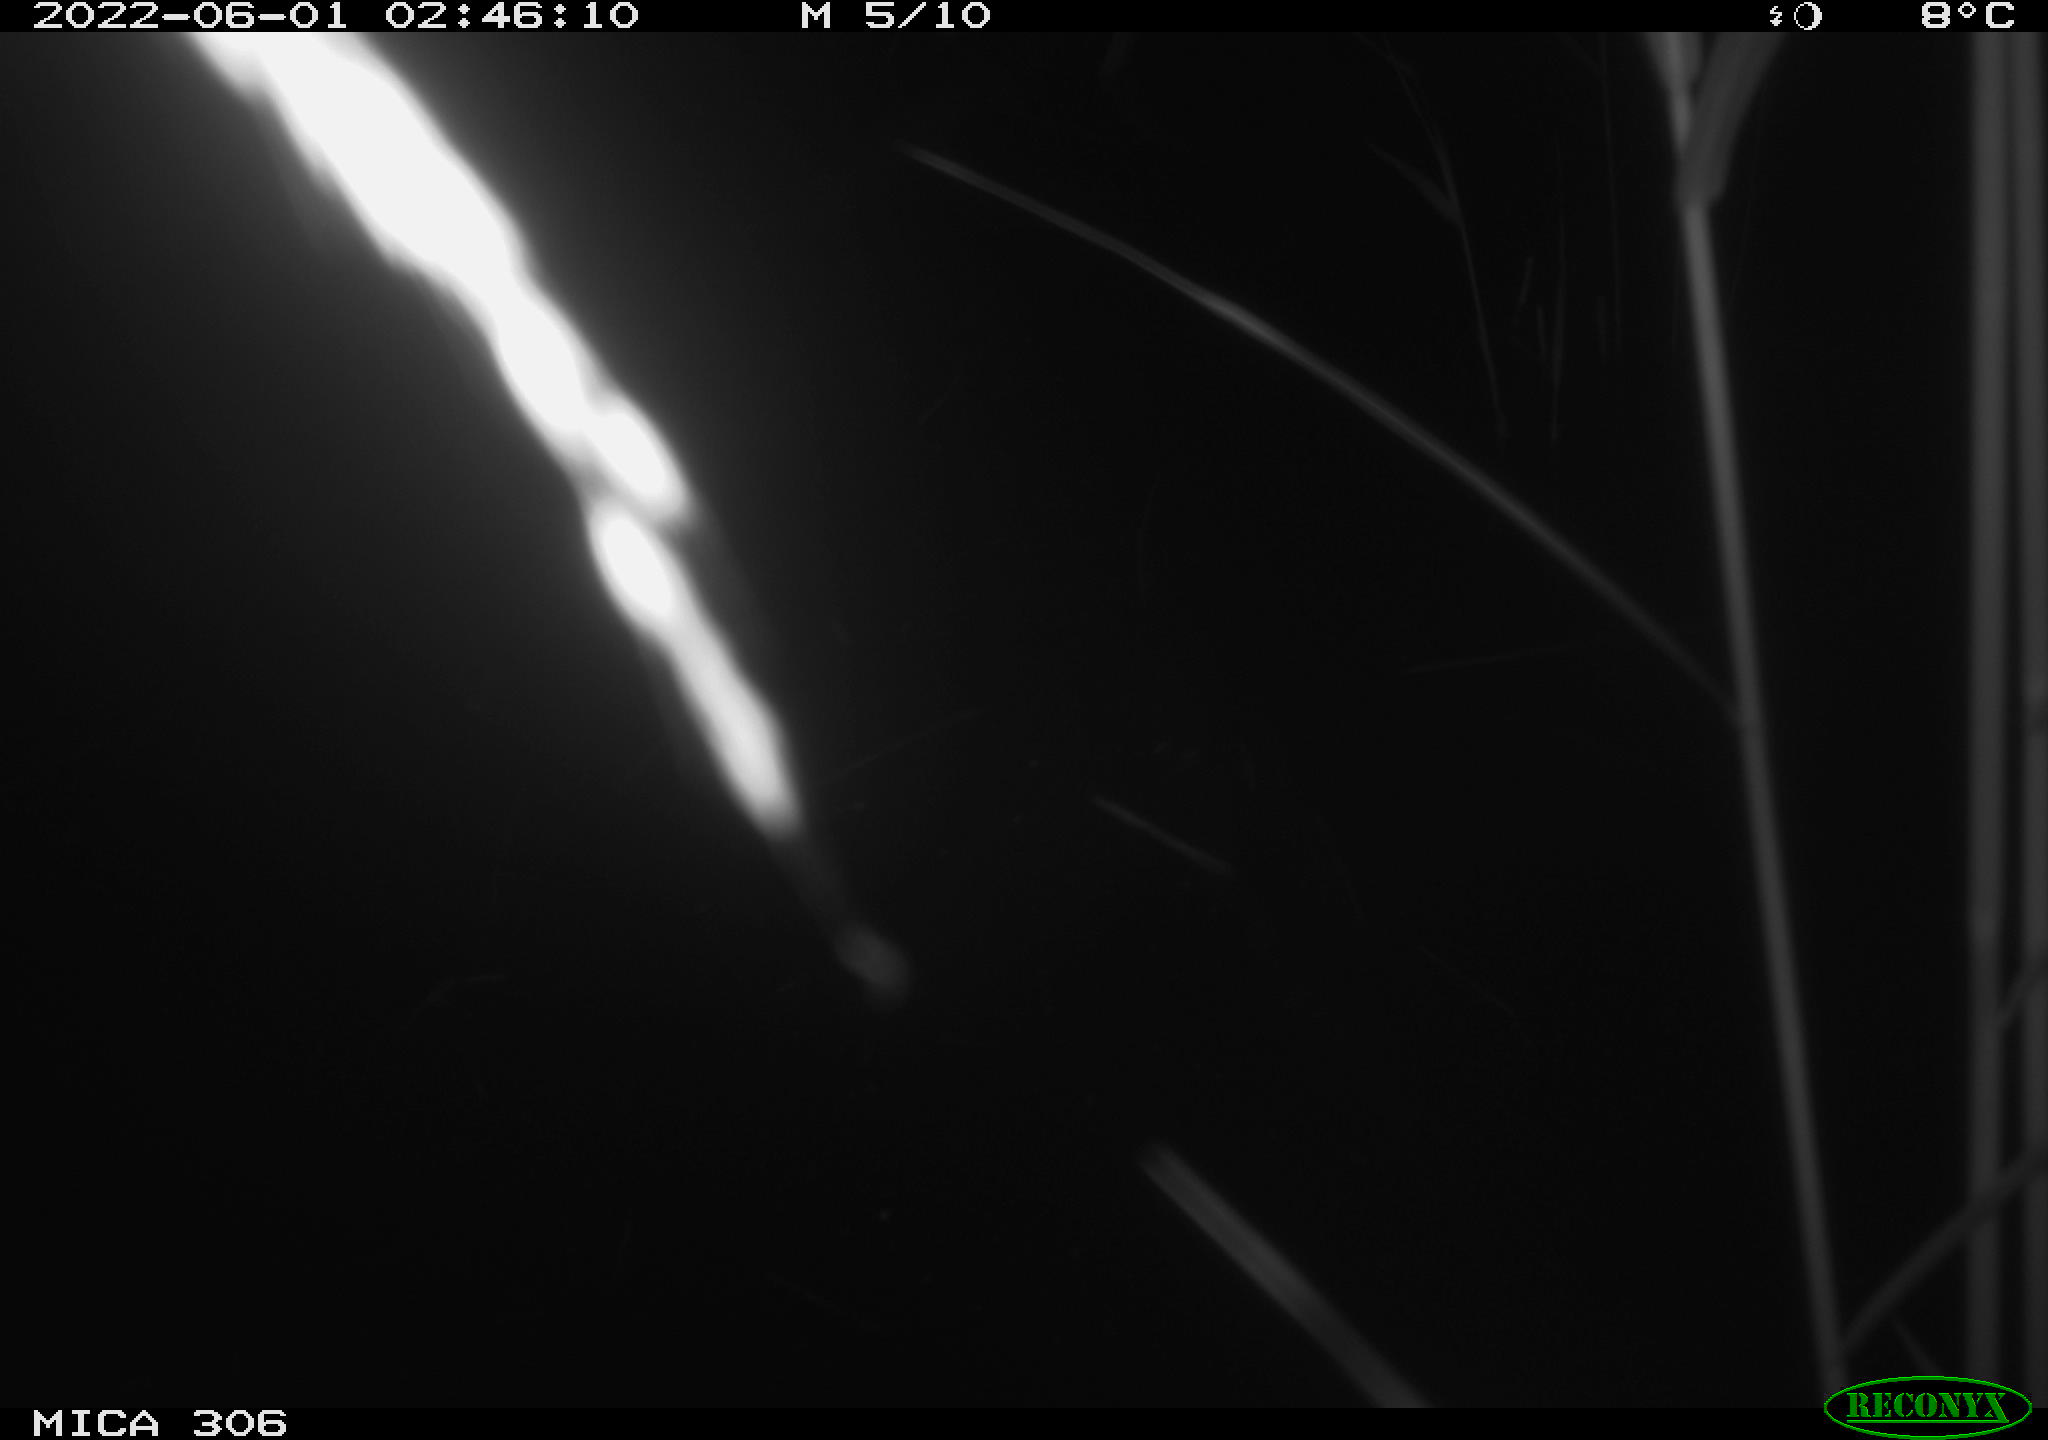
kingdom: Animalia
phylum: Chordata
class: Mammalia
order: Rodentia
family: Cricetidae
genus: Ondatra
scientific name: Ondatra zibethicus
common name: Muskrat
